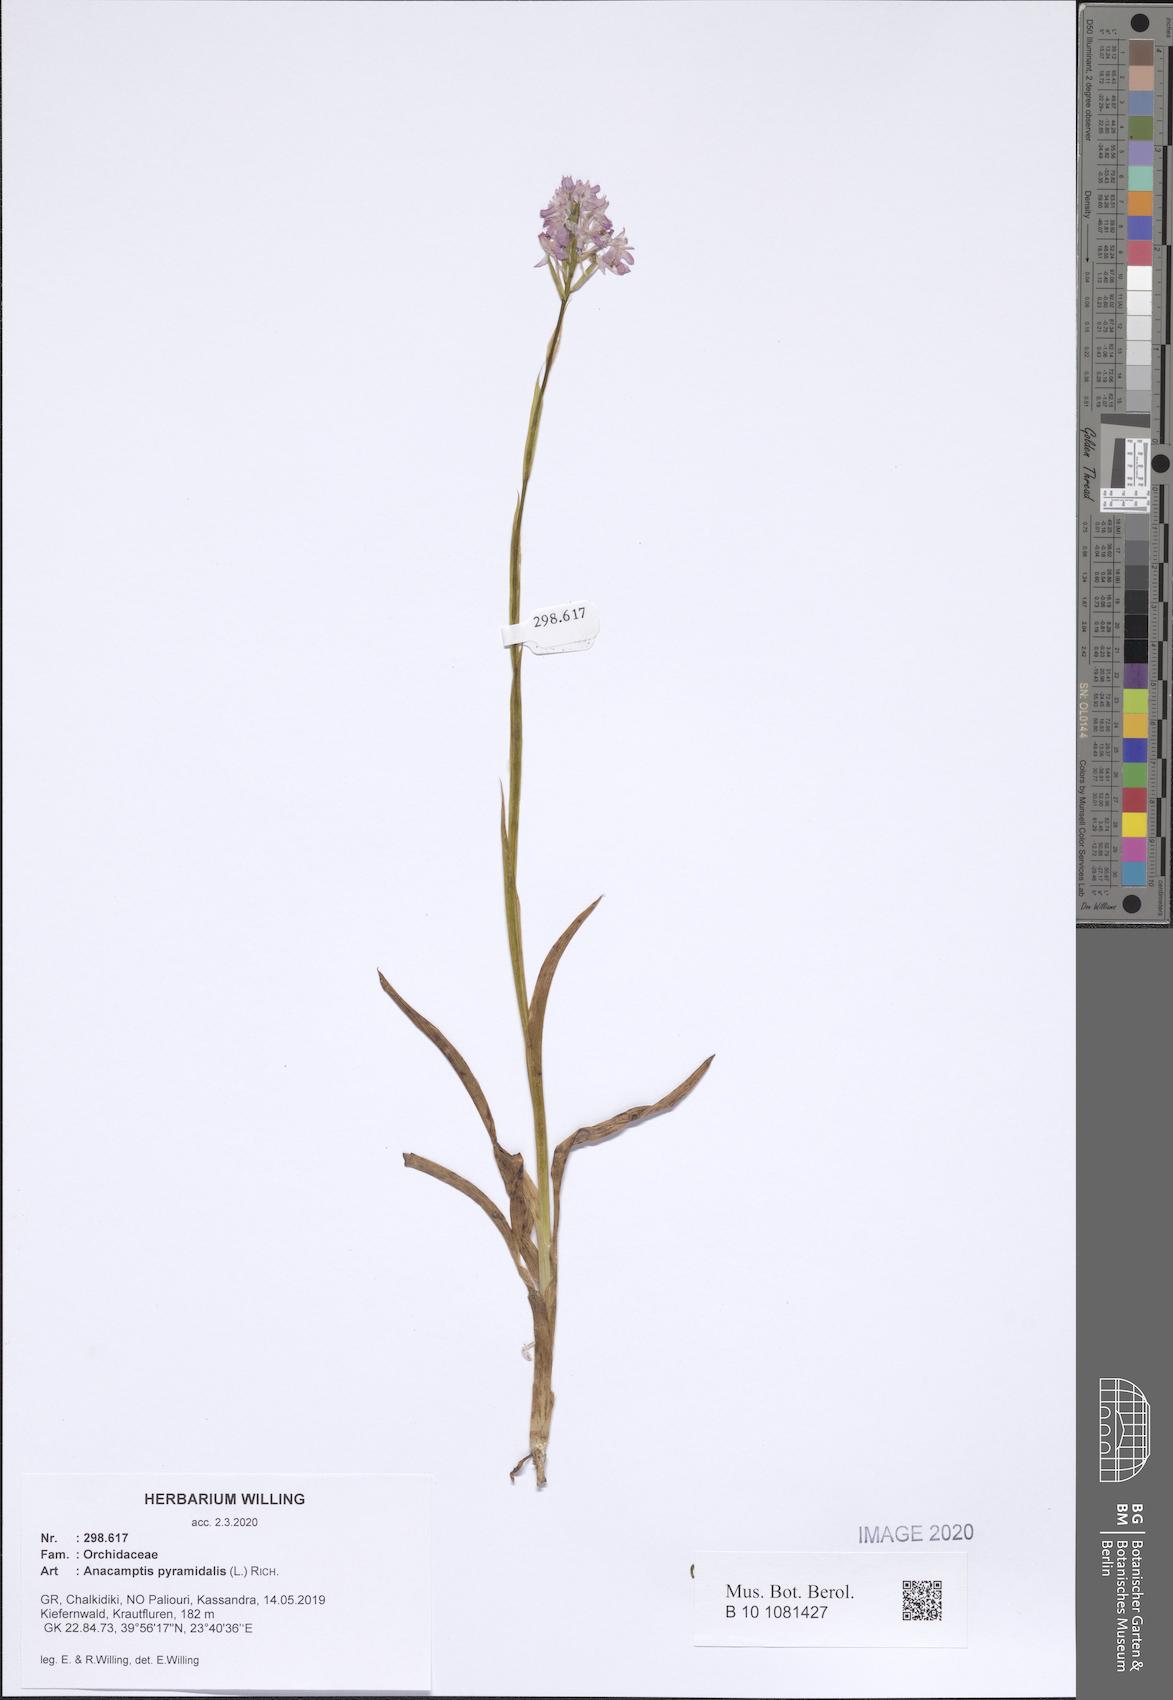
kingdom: Plantae
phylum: Tracheophyta
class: Liliopsida
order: Asparagales
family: Orchidaceae
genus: Anacamptis
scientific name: Anacamptis pyramidalis
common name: Pyramidal orchid
